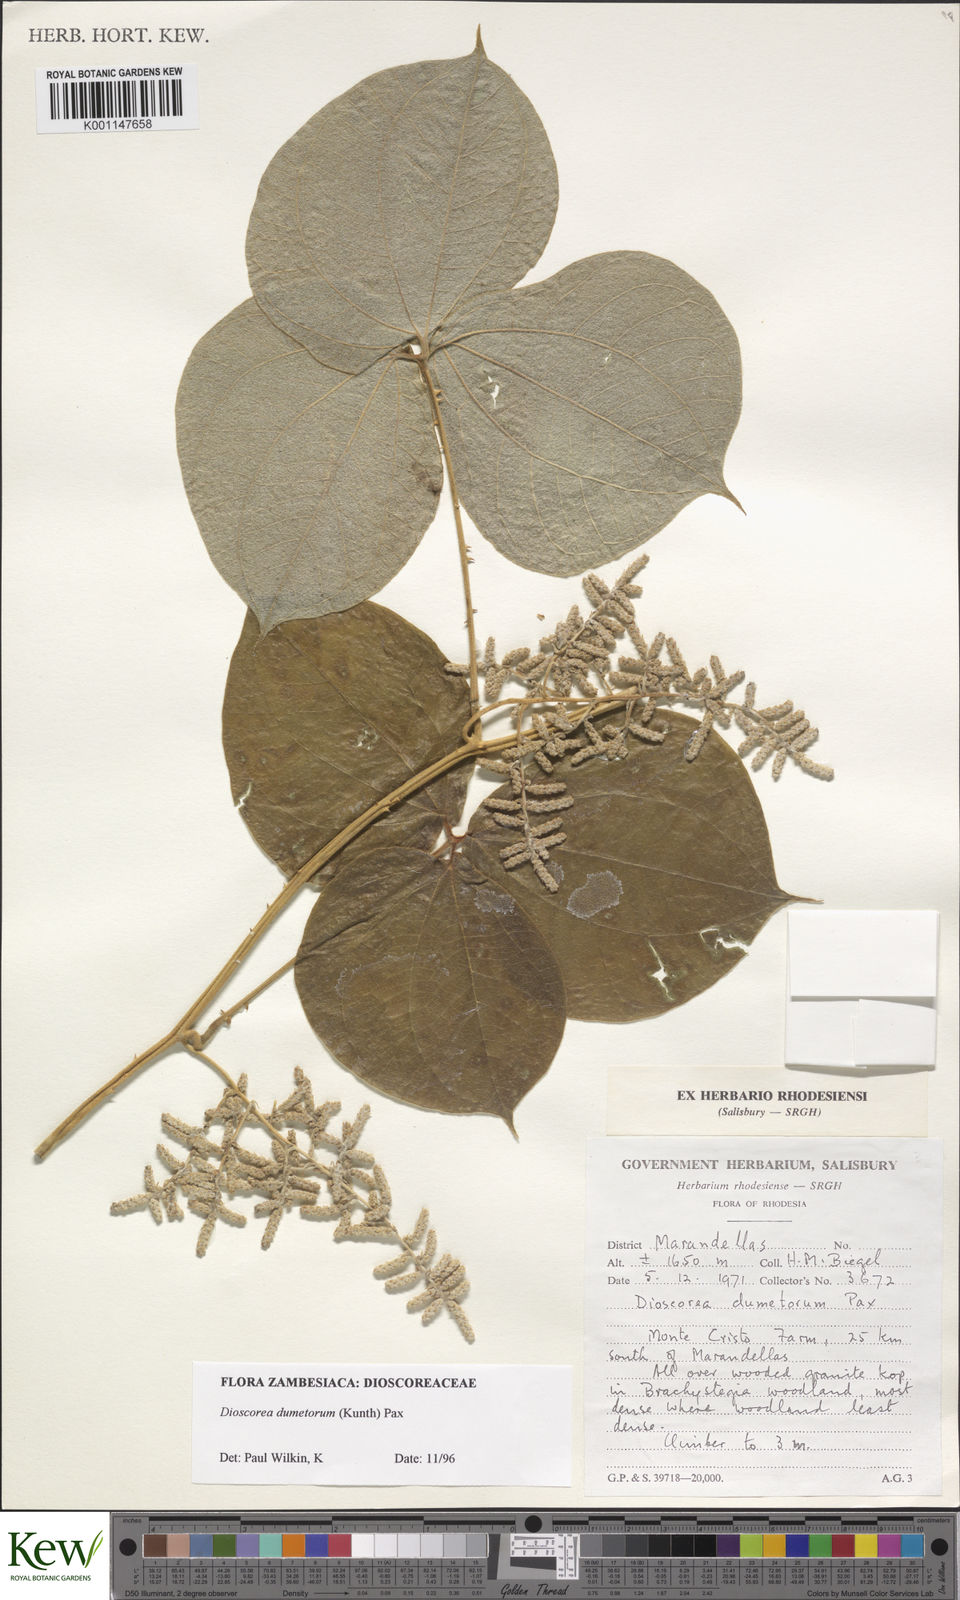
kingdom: Plantae
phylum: Tracheophyta
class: Liliopsida
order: Dioscoreales
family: Dioscoreaceae
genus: Dioscorea
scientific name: Dioscorea dumetorum
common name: African bitter yam
